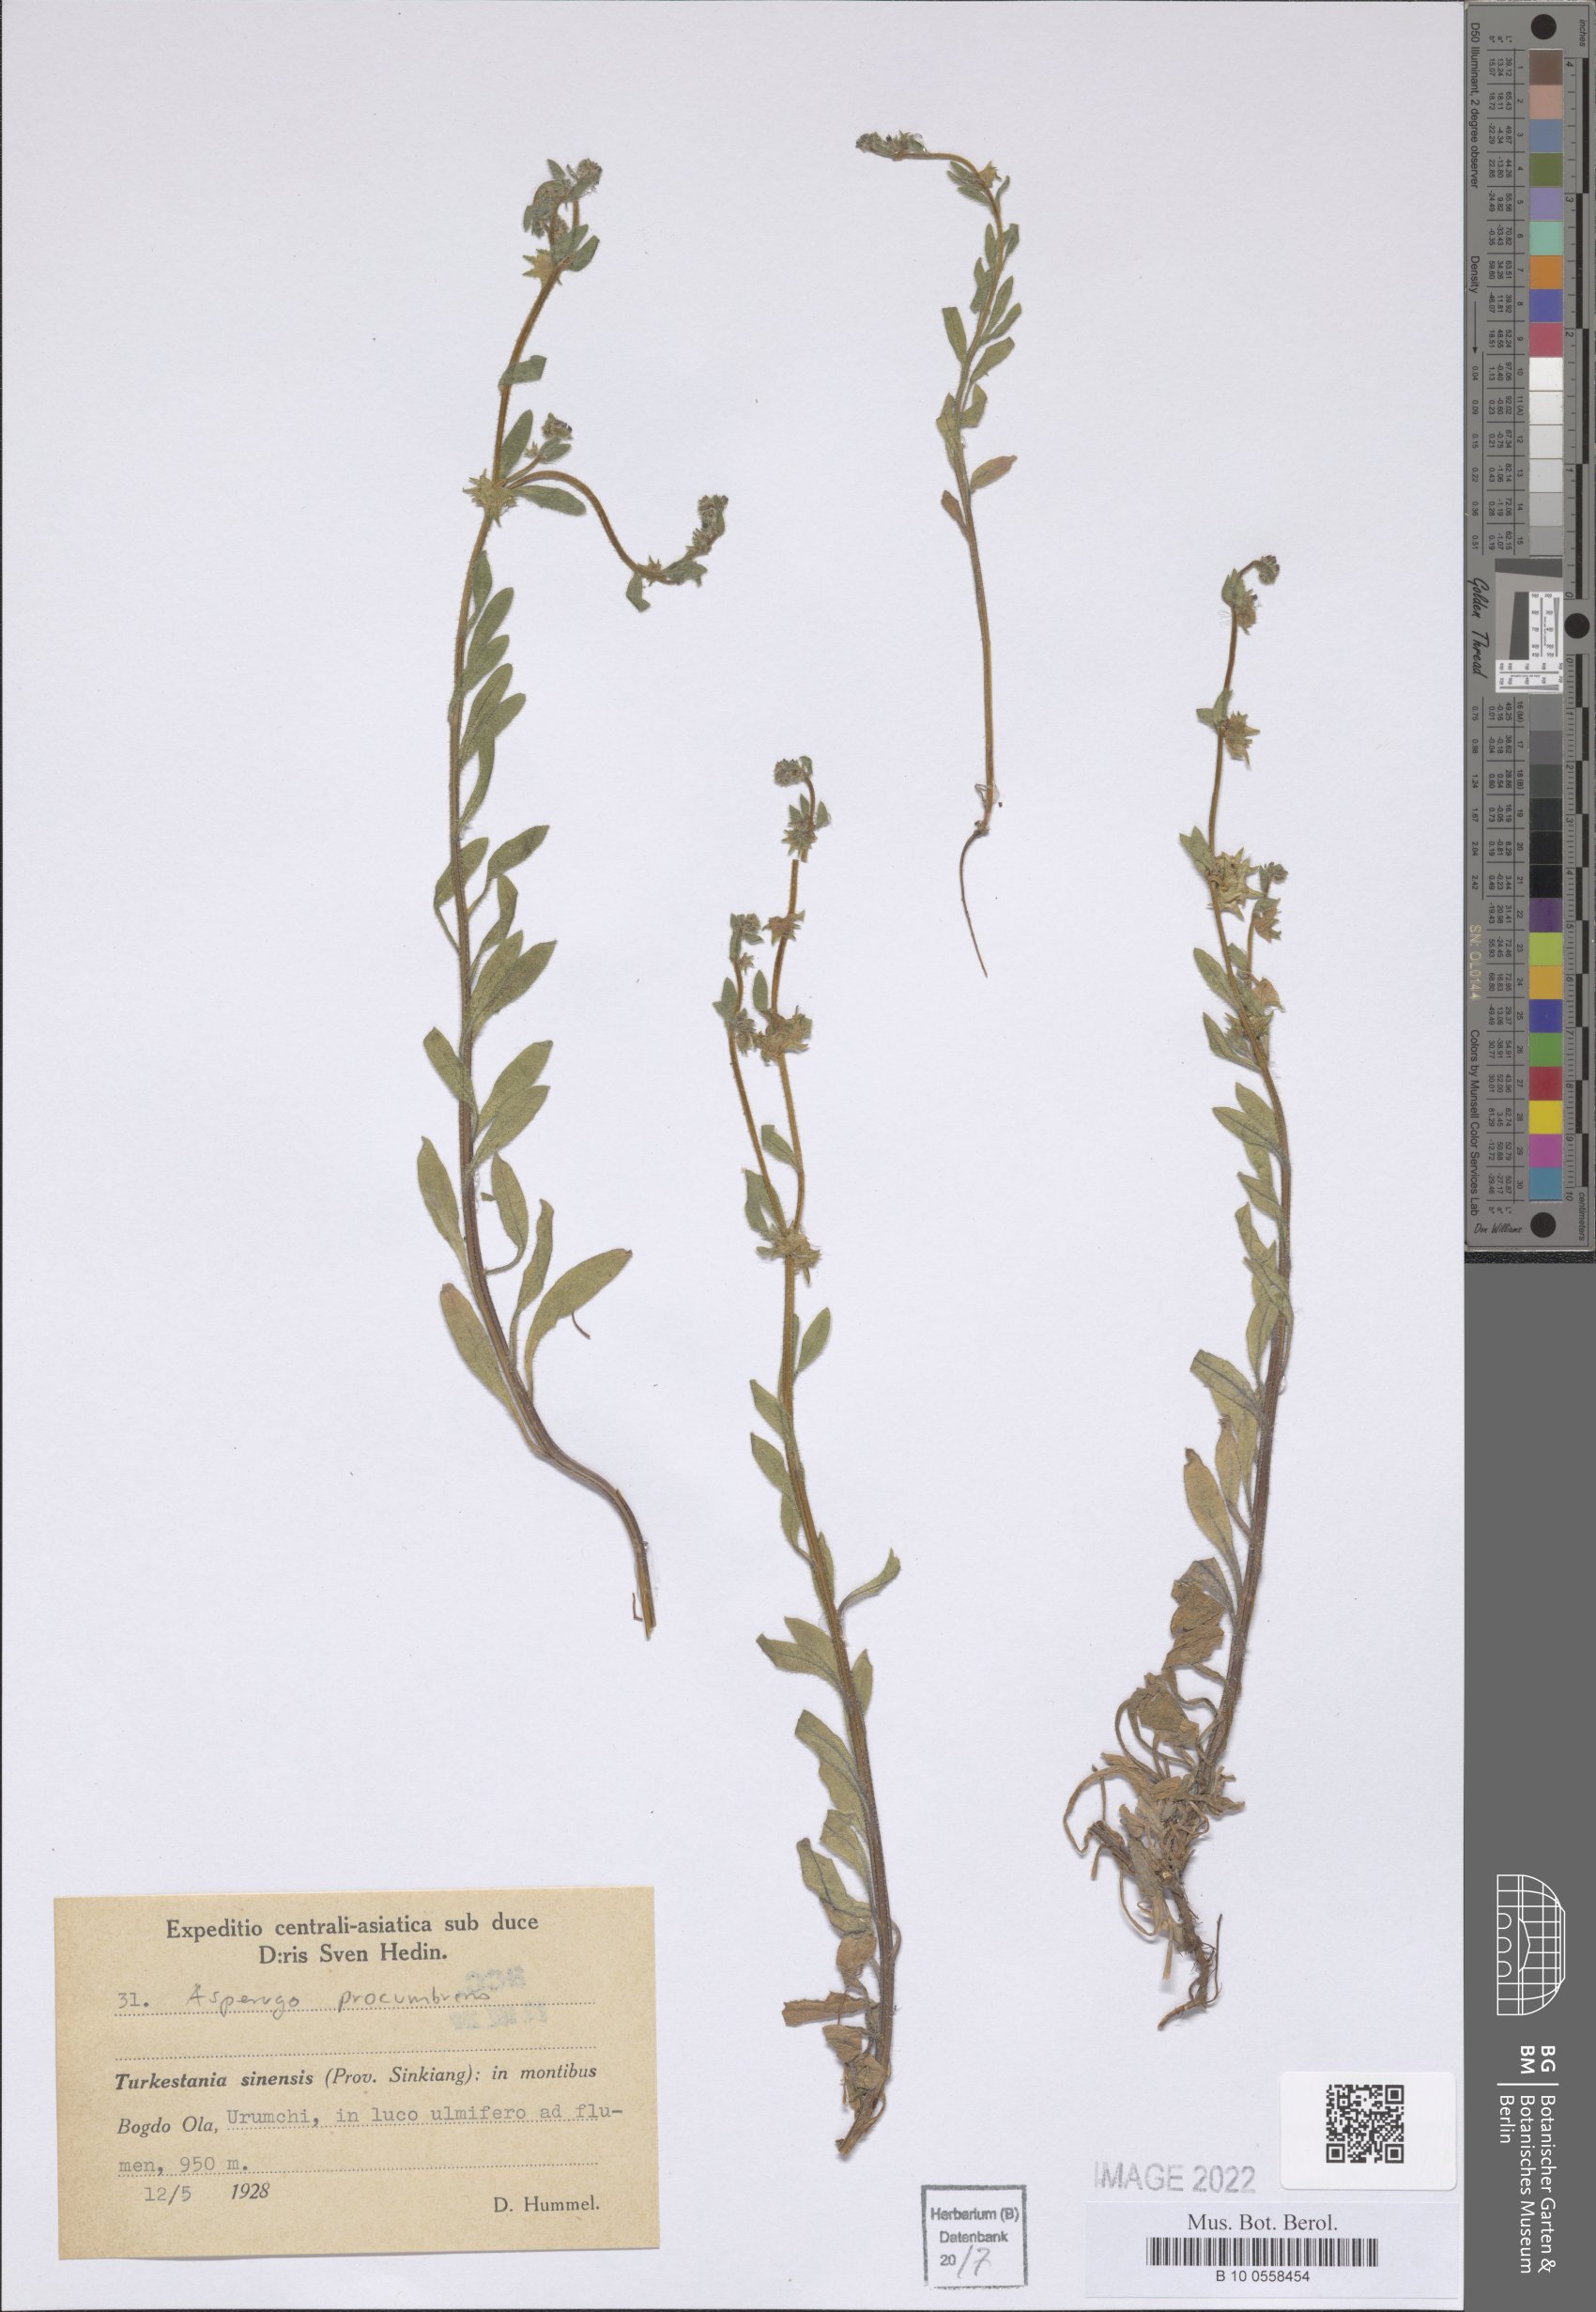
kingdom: Plantae
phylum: Tracheophyta
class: Magnoliopsida
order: Boraginales
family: Boraginaceae
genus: Asperugo
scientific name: Asperugo procumbens
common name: Madwort
